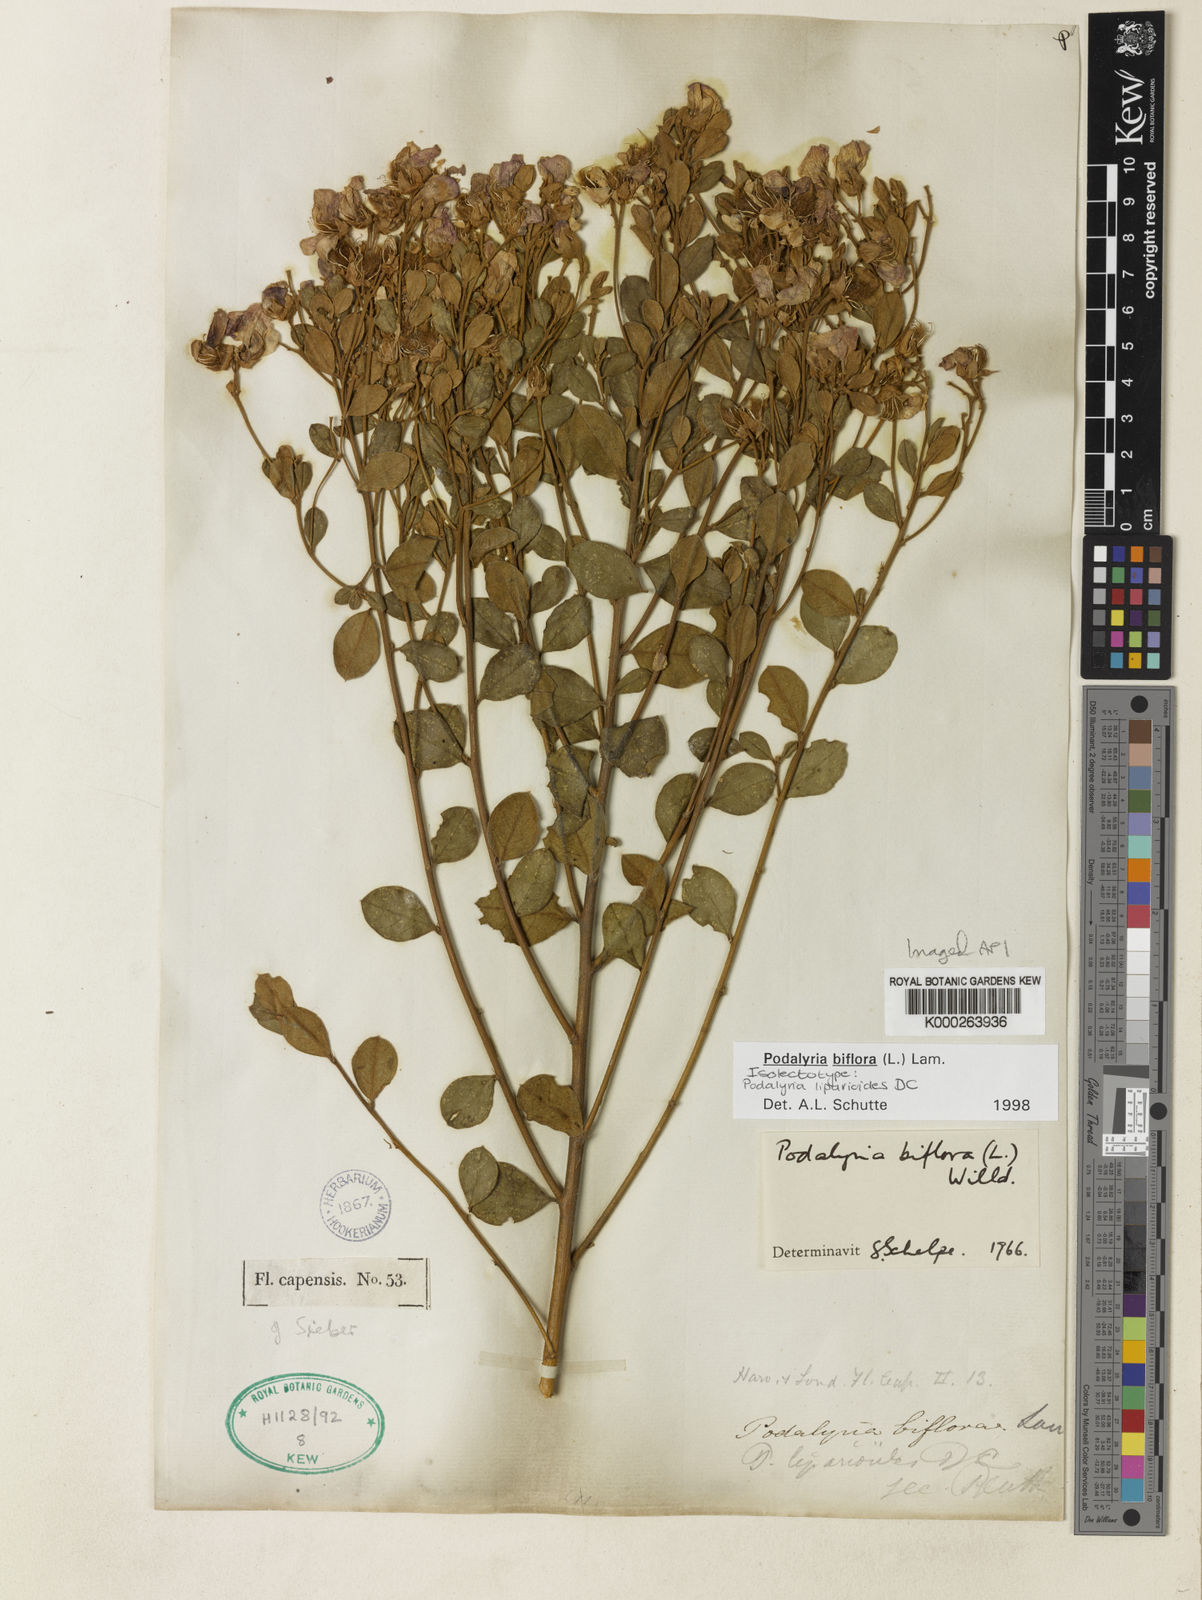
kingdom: Plantae
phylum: Tracheophyta
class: Magnoliopsida
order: Fabales
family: Fabaceae
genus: Podalyria
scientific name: Podalyria biflora
